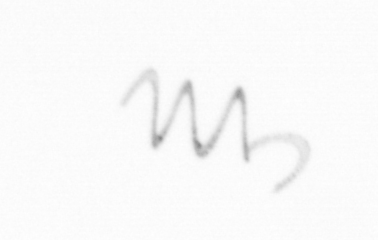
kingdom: Chromista
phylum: Ochrophyta
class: Bacillariophyceae
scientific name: Bacillariophyceae
